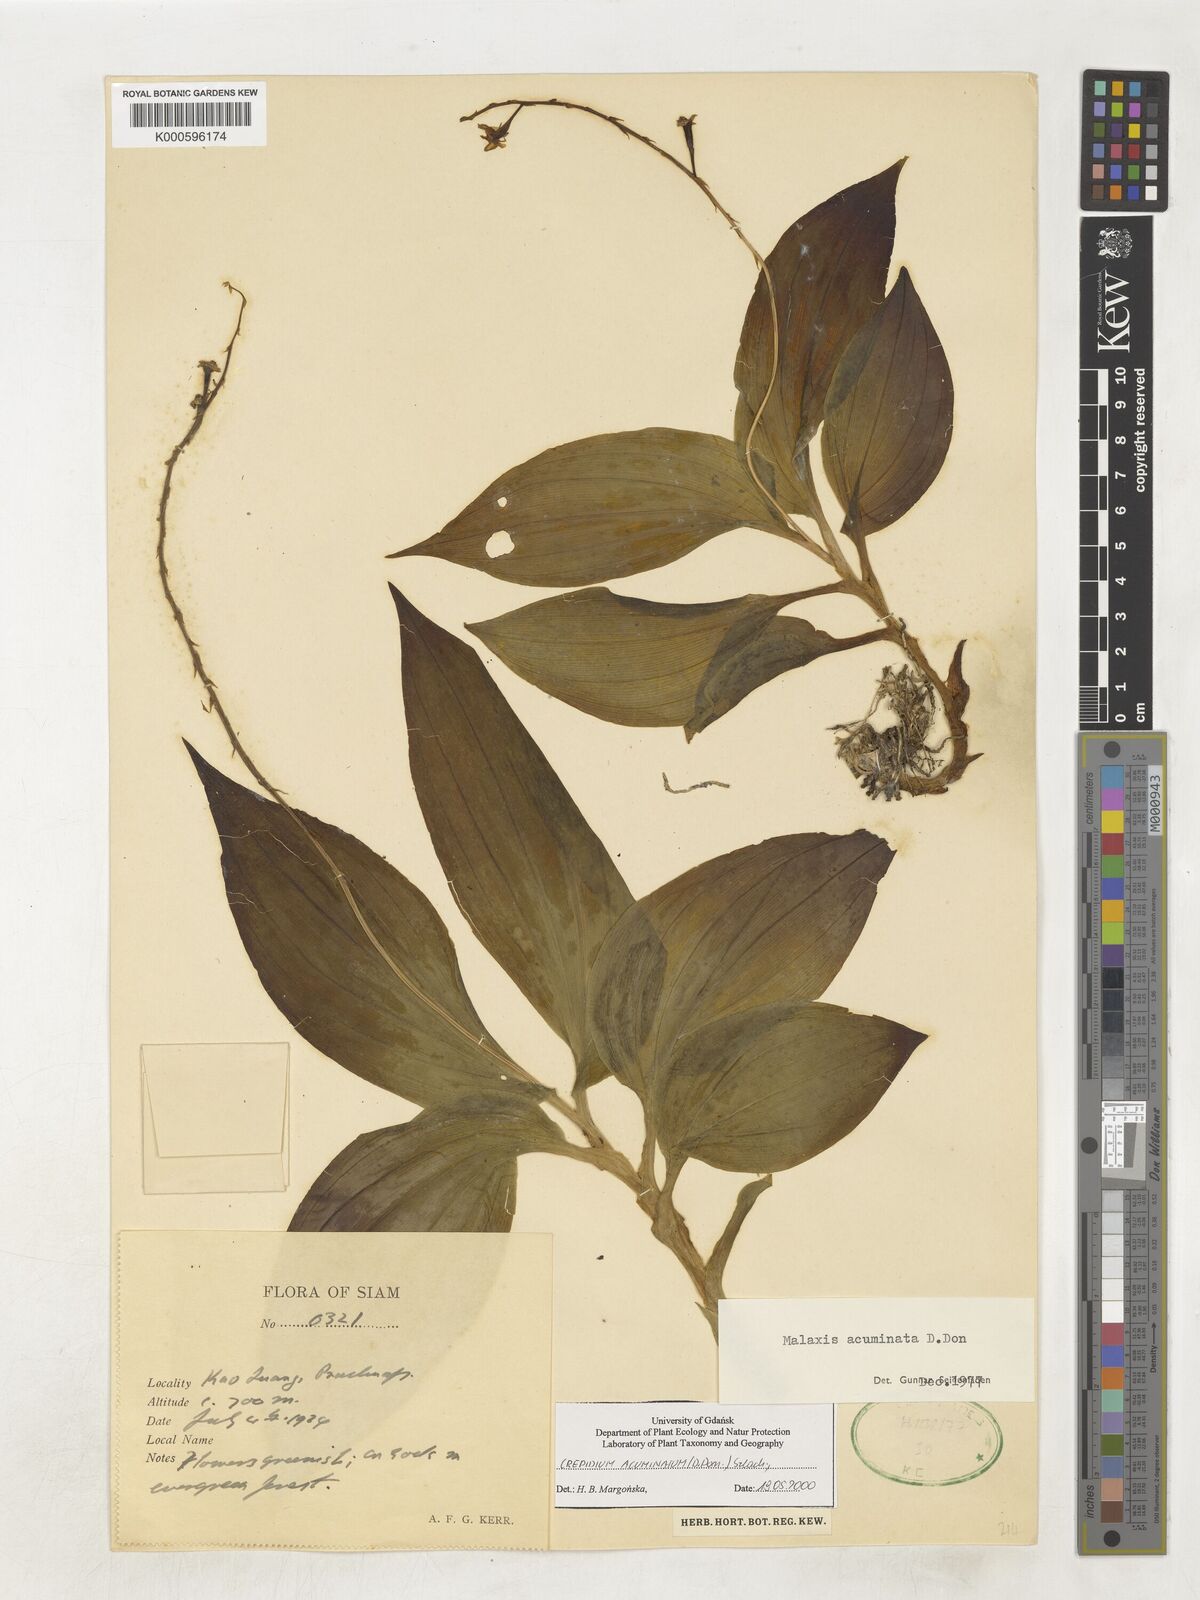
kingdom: Plantae
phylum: Tracheophyta
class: Liliopsida
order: Asparagales
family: Orchidaceae
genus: Crepidium
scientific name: Crepidium acuminatum
